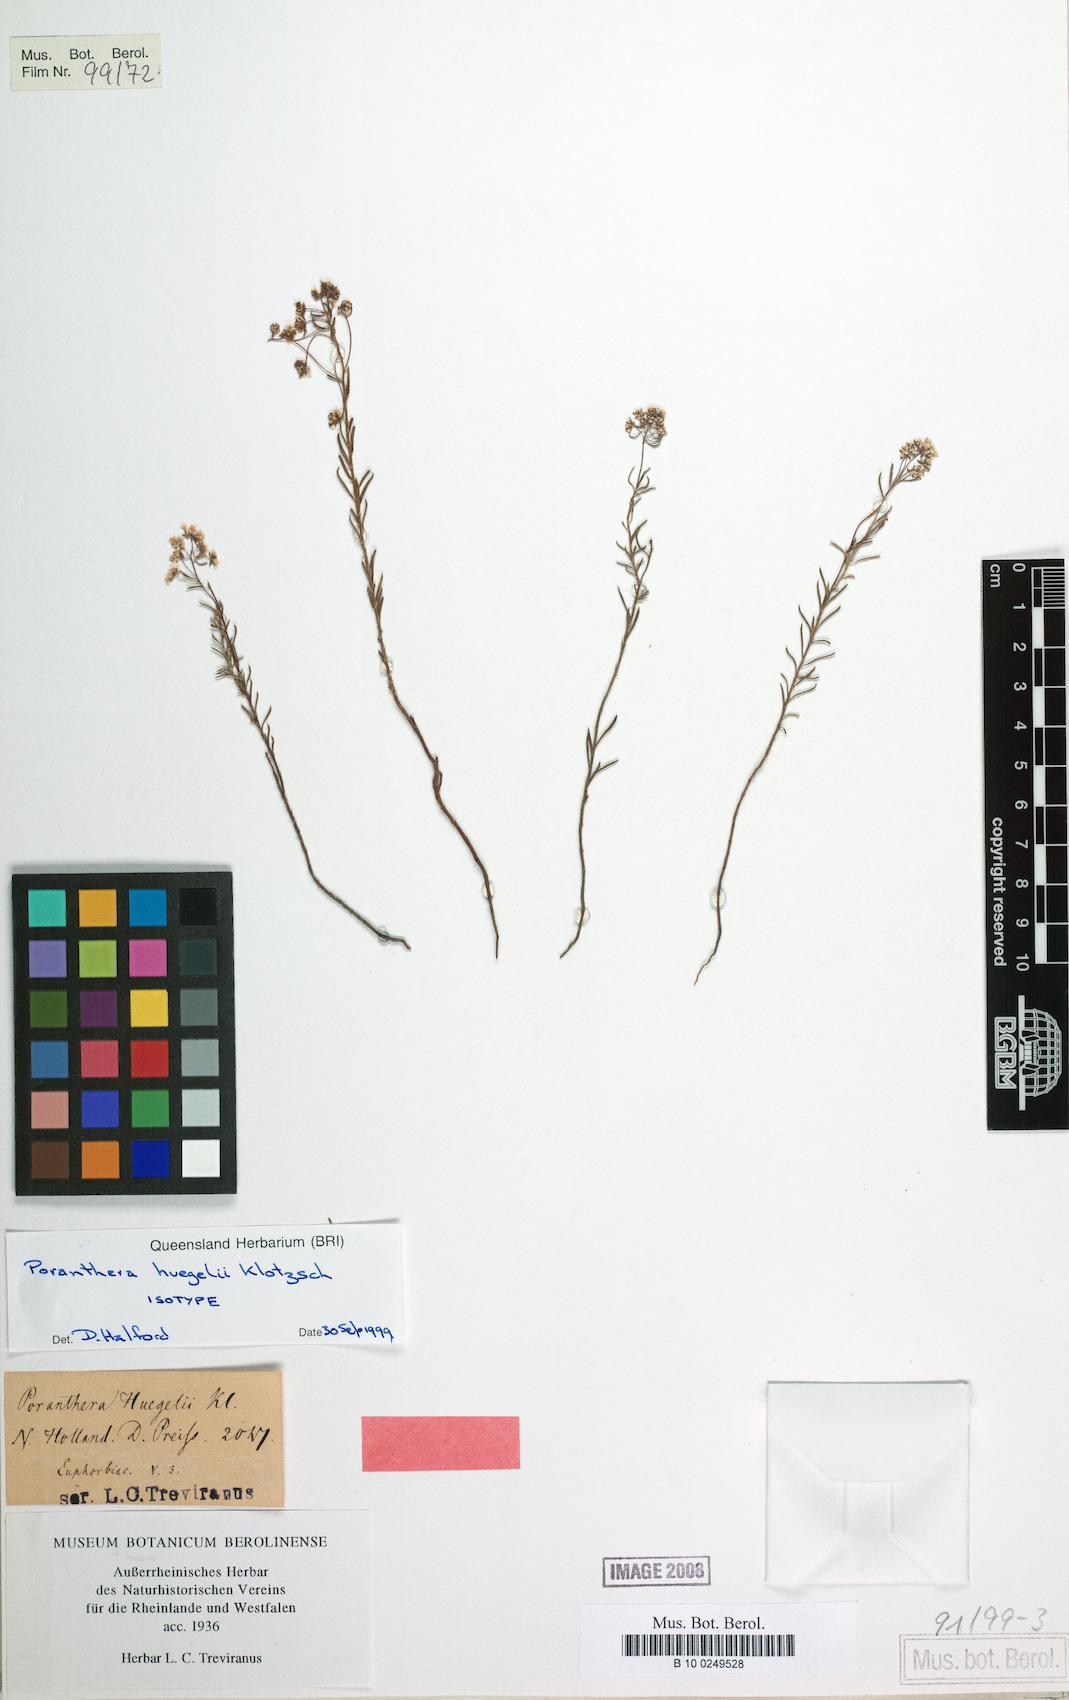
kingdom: Plantae
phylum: Tracheophyta
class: Magnoliopsida
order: Malpighiales
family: Phyllanthaceae
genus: Poranthera
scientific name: Poranthera huegelii
